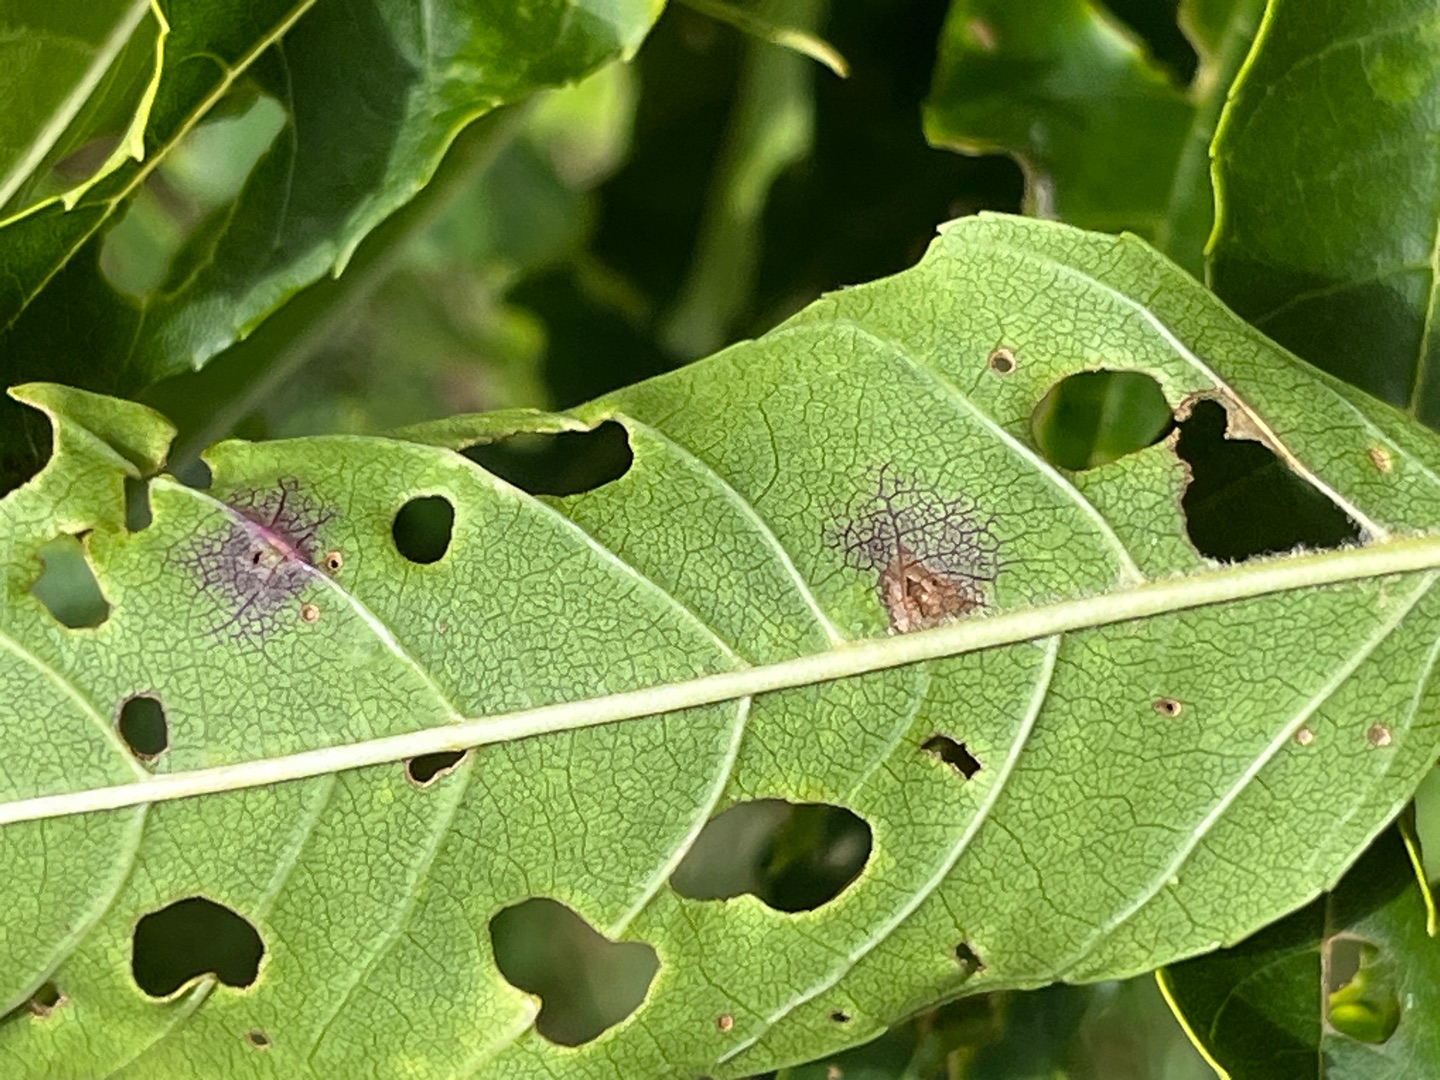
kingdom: Animalia
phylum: Arthropoda
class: Insecta
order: Diptera
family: Cecidomyiidae
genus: Dasineura
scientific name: Dasineura fraxinea
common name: Askeblæregalmyg
